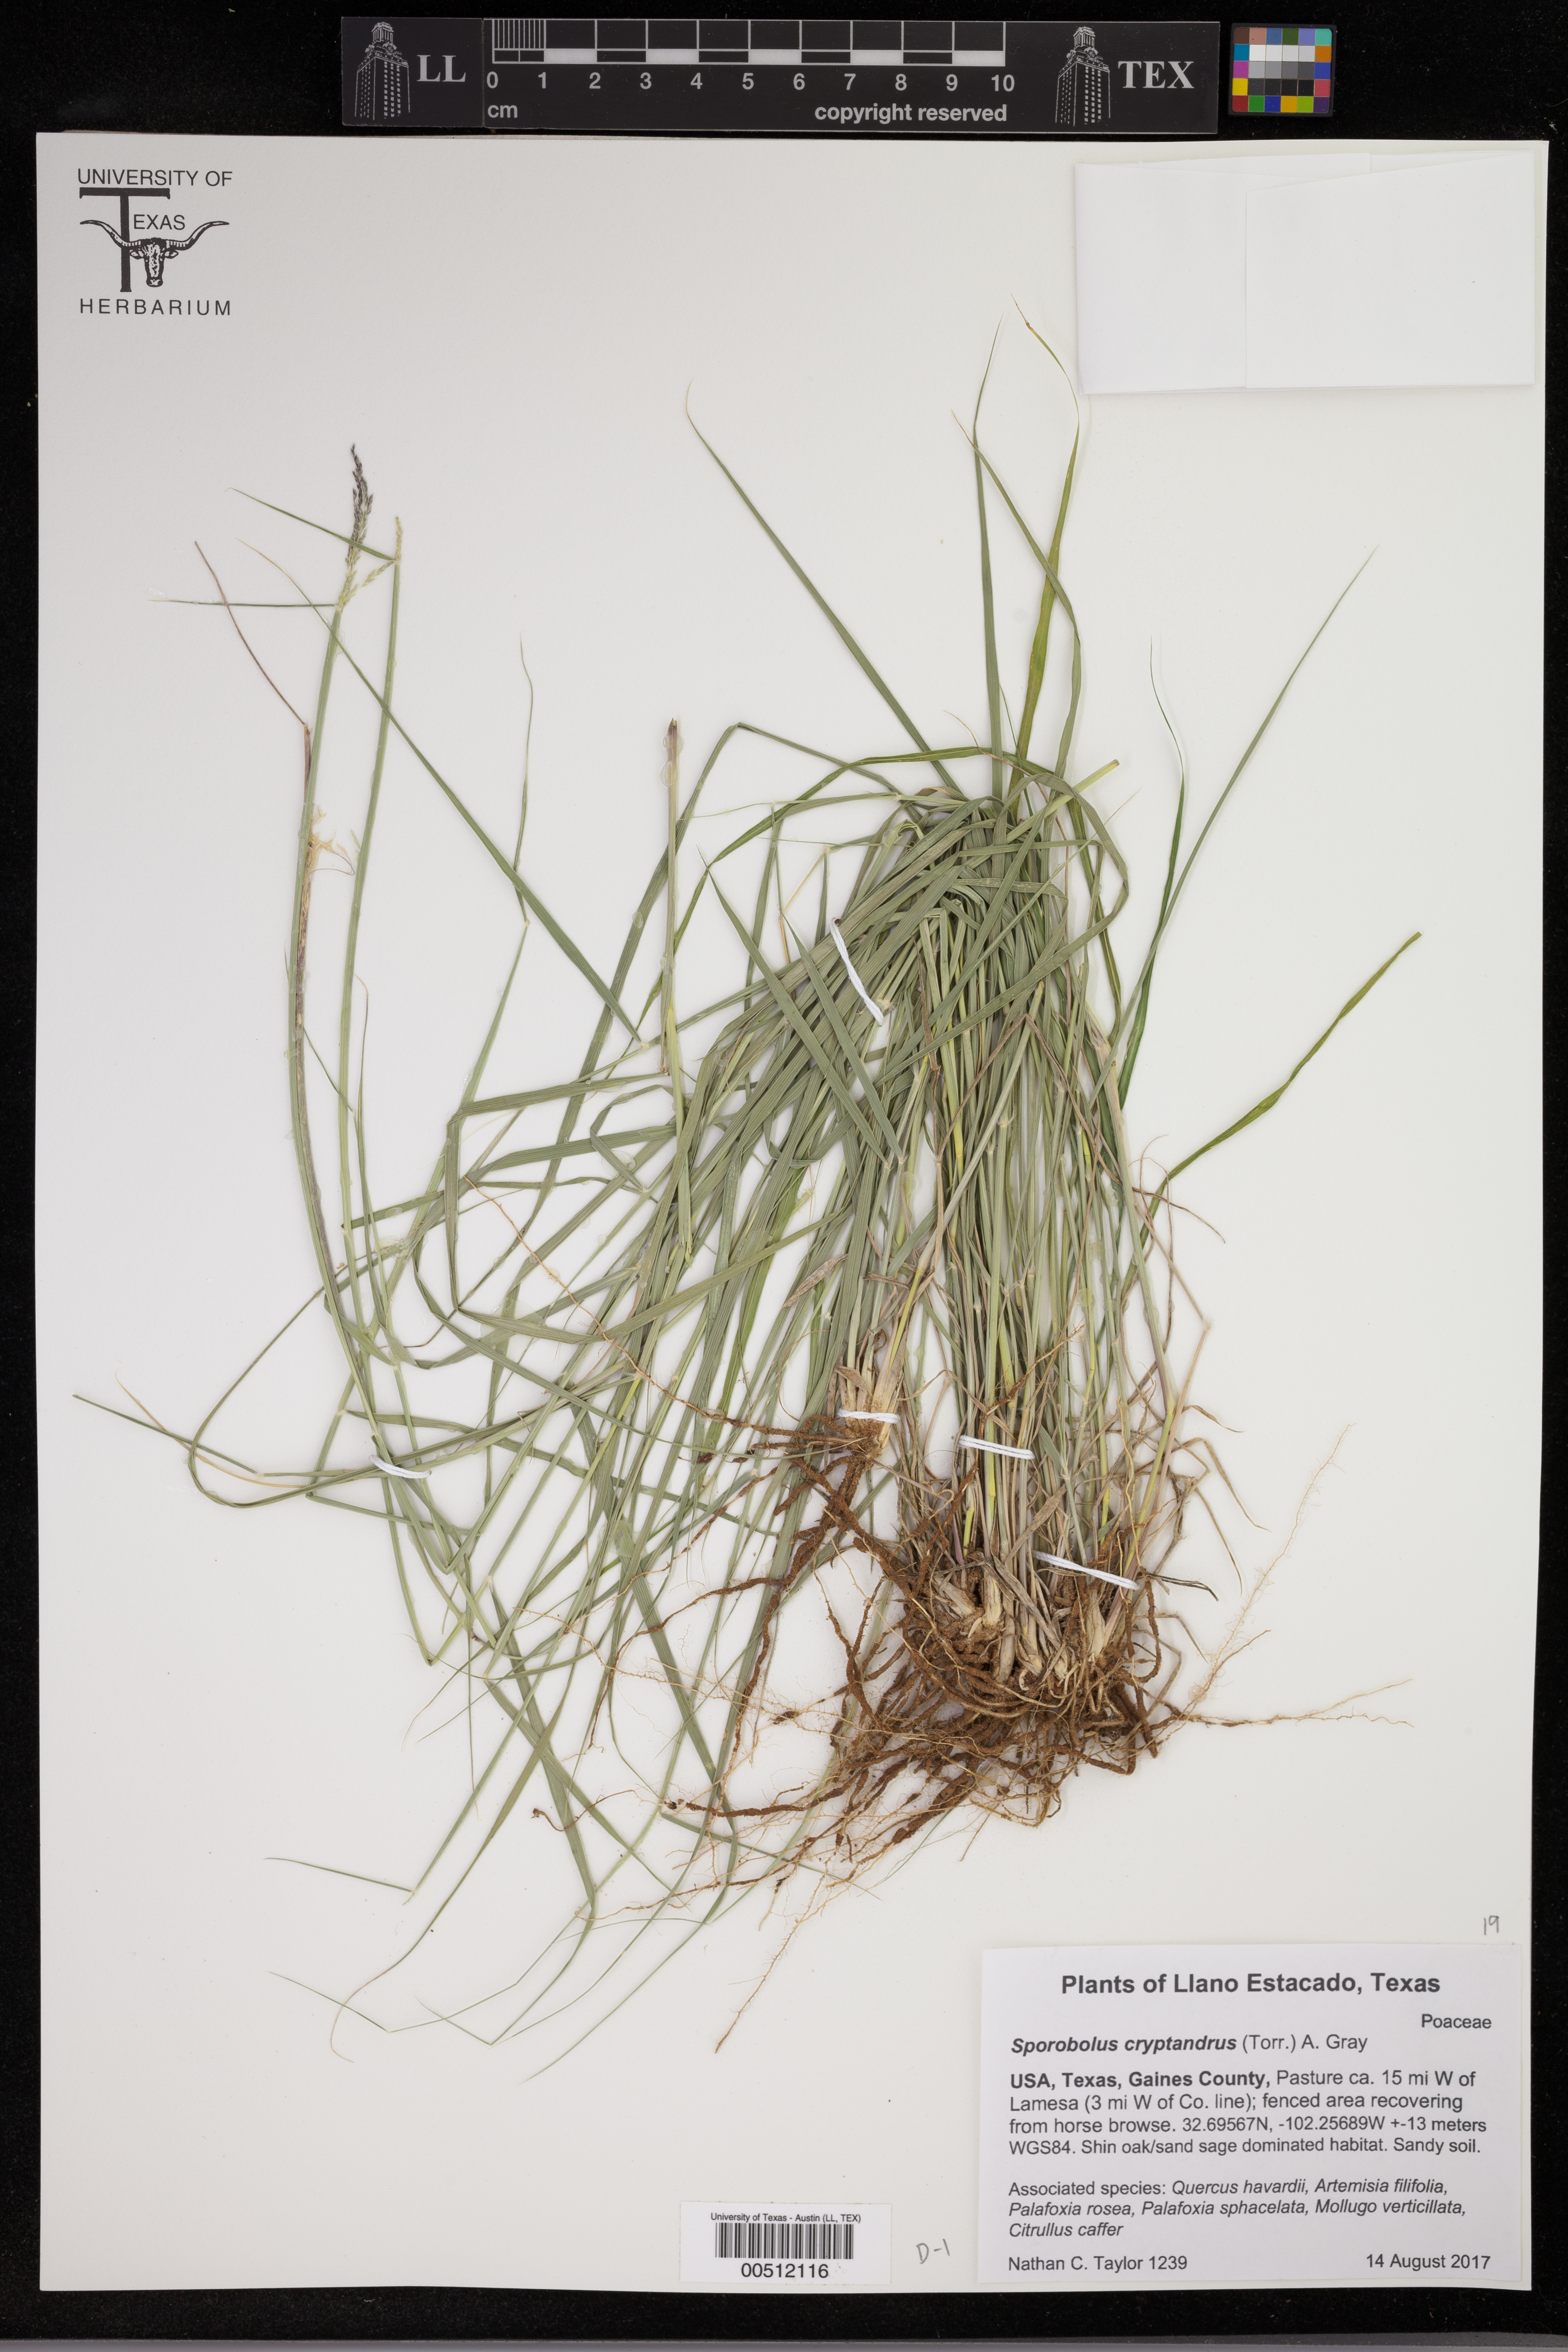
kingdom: Plantae
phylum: Tracheophyta
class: Liliopsida
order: Poales
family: Poaceae
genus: Sporobolus
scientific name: Sporobolus cryptandrus
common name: Sand dropseed
